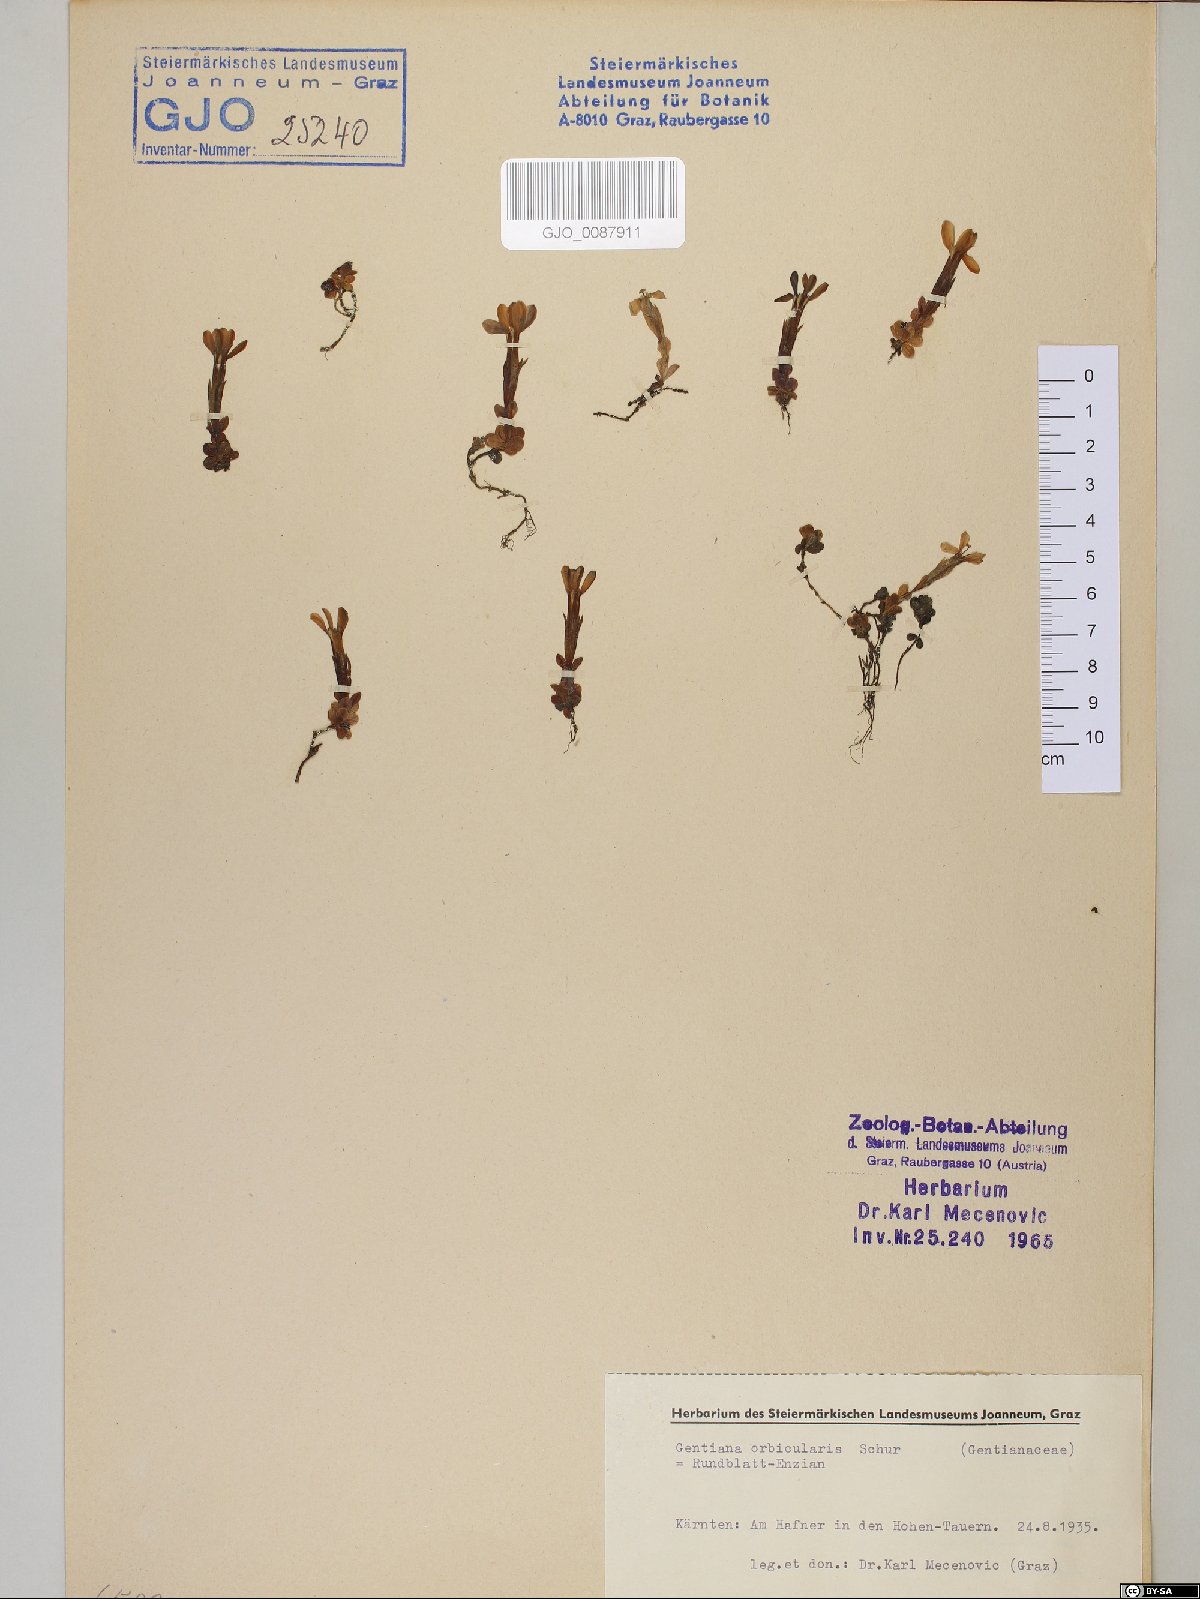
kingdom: Plantae
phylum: Tracheophyta
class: Magnoliopsida
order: Gentianales
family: Gentianaceae
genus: Gentiana
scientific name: Gentiana orbicularis
